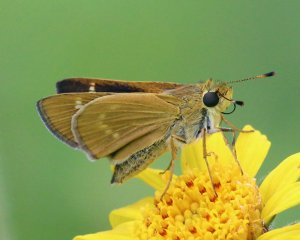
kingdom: Animalia
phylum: Arthropoda
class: Insecta
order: Lepidoptera
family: Hesperiidae
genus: Mellana
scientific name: Mellana eulogius
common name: Common Mellana
